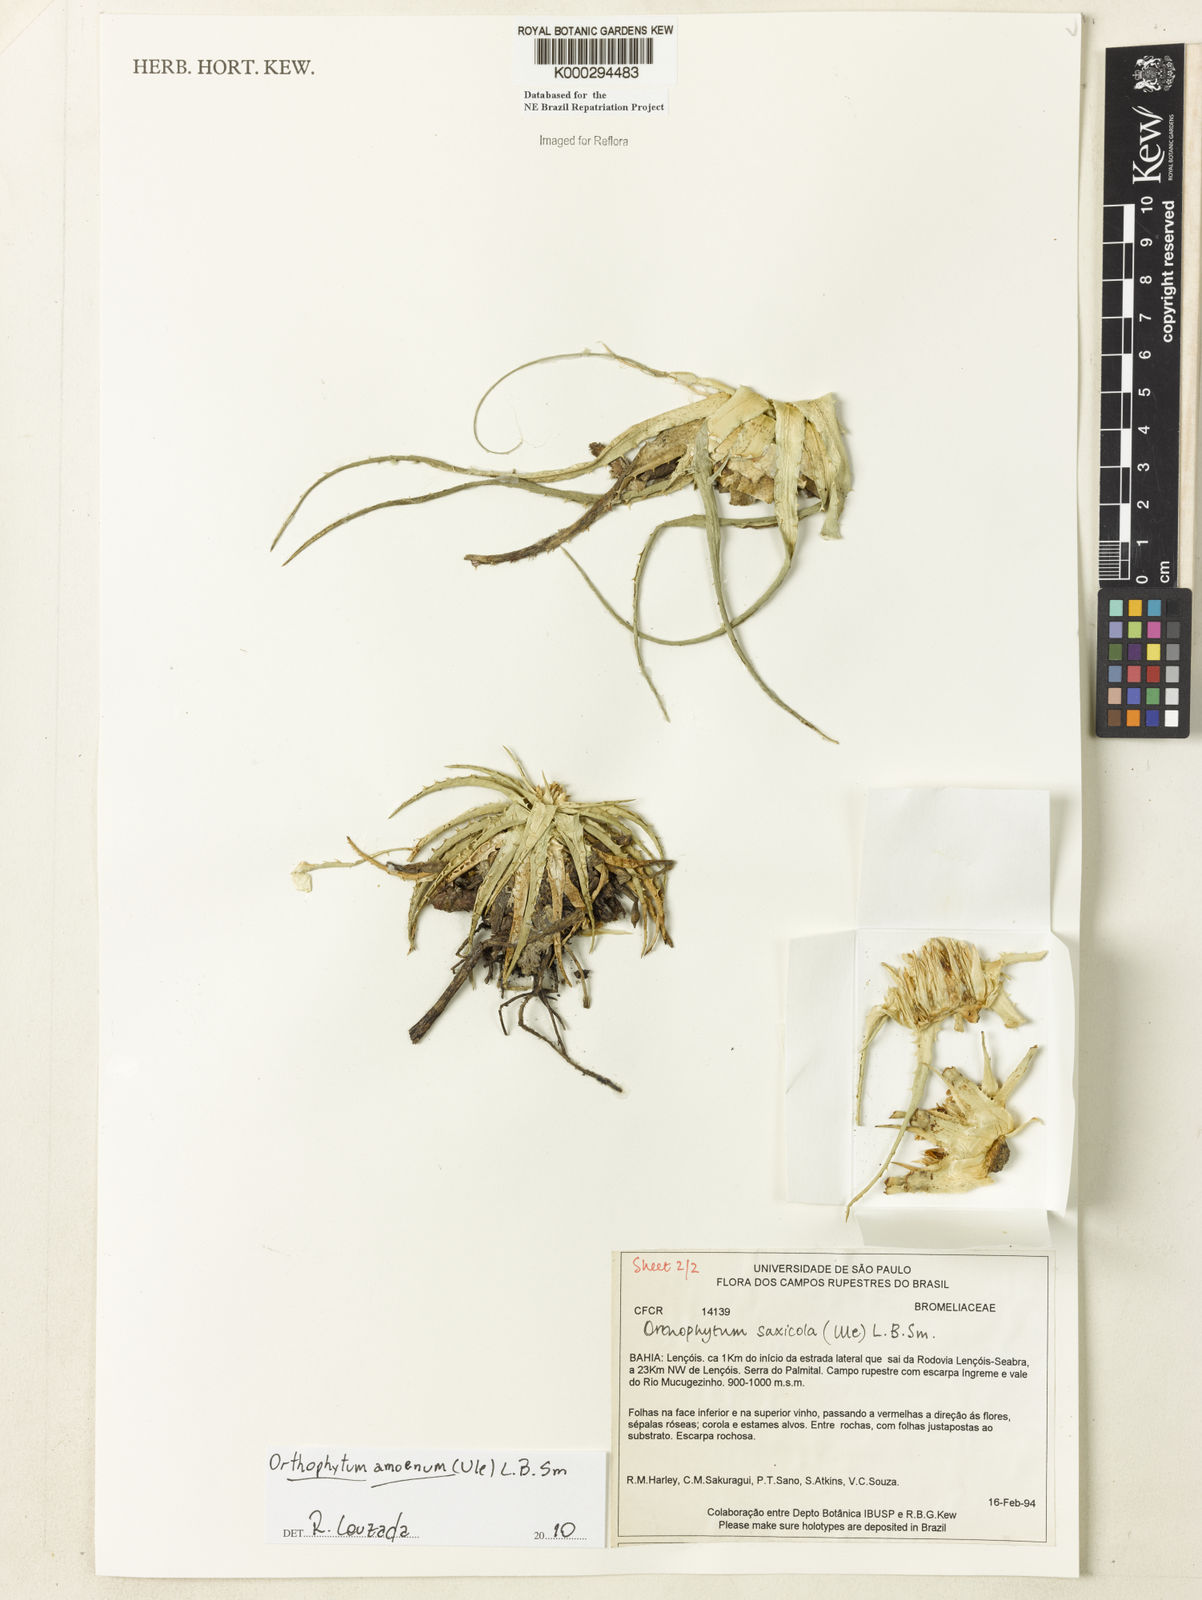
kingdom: Plantae
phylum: Tracheophyta
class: Liliopsida
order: Poales
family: Bromeliaceae
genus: Orthophytum
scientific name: Orthophytum saxicola
